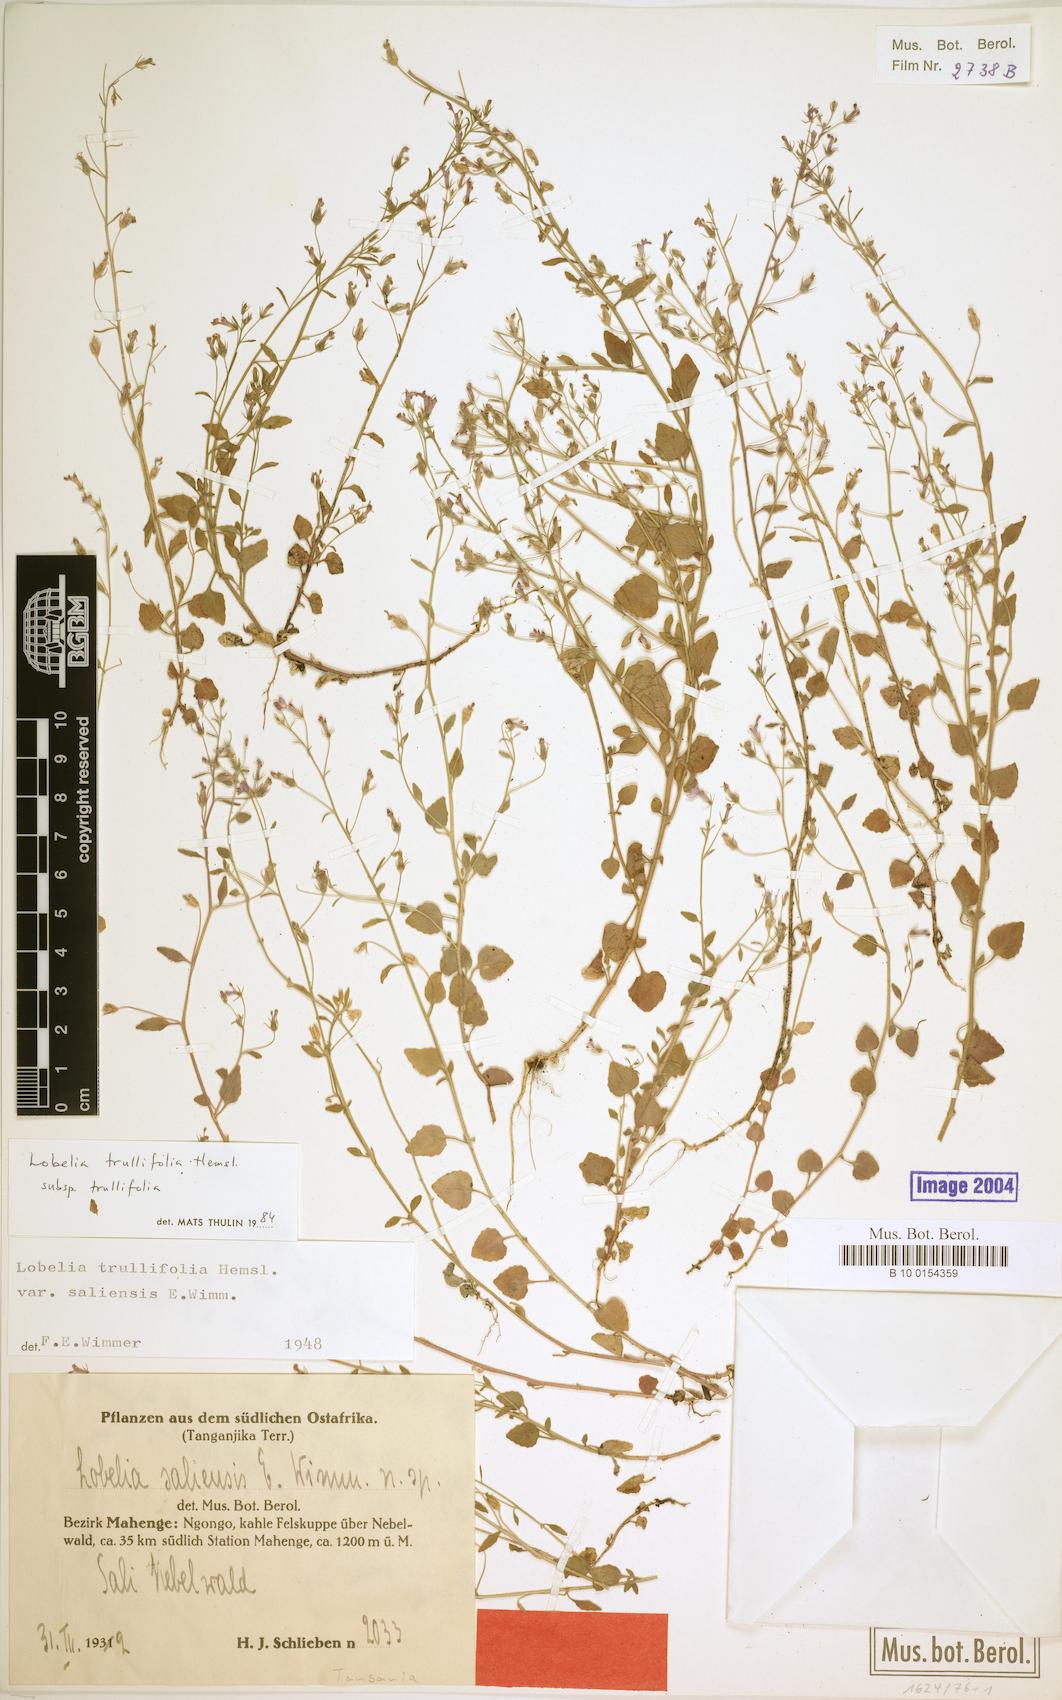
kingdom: Plantae
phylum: Tracheophyta
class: Magnoliopsida
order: Asterales
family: Campanulaceae
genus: Lobelia
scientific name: Lobelia trullifolia
